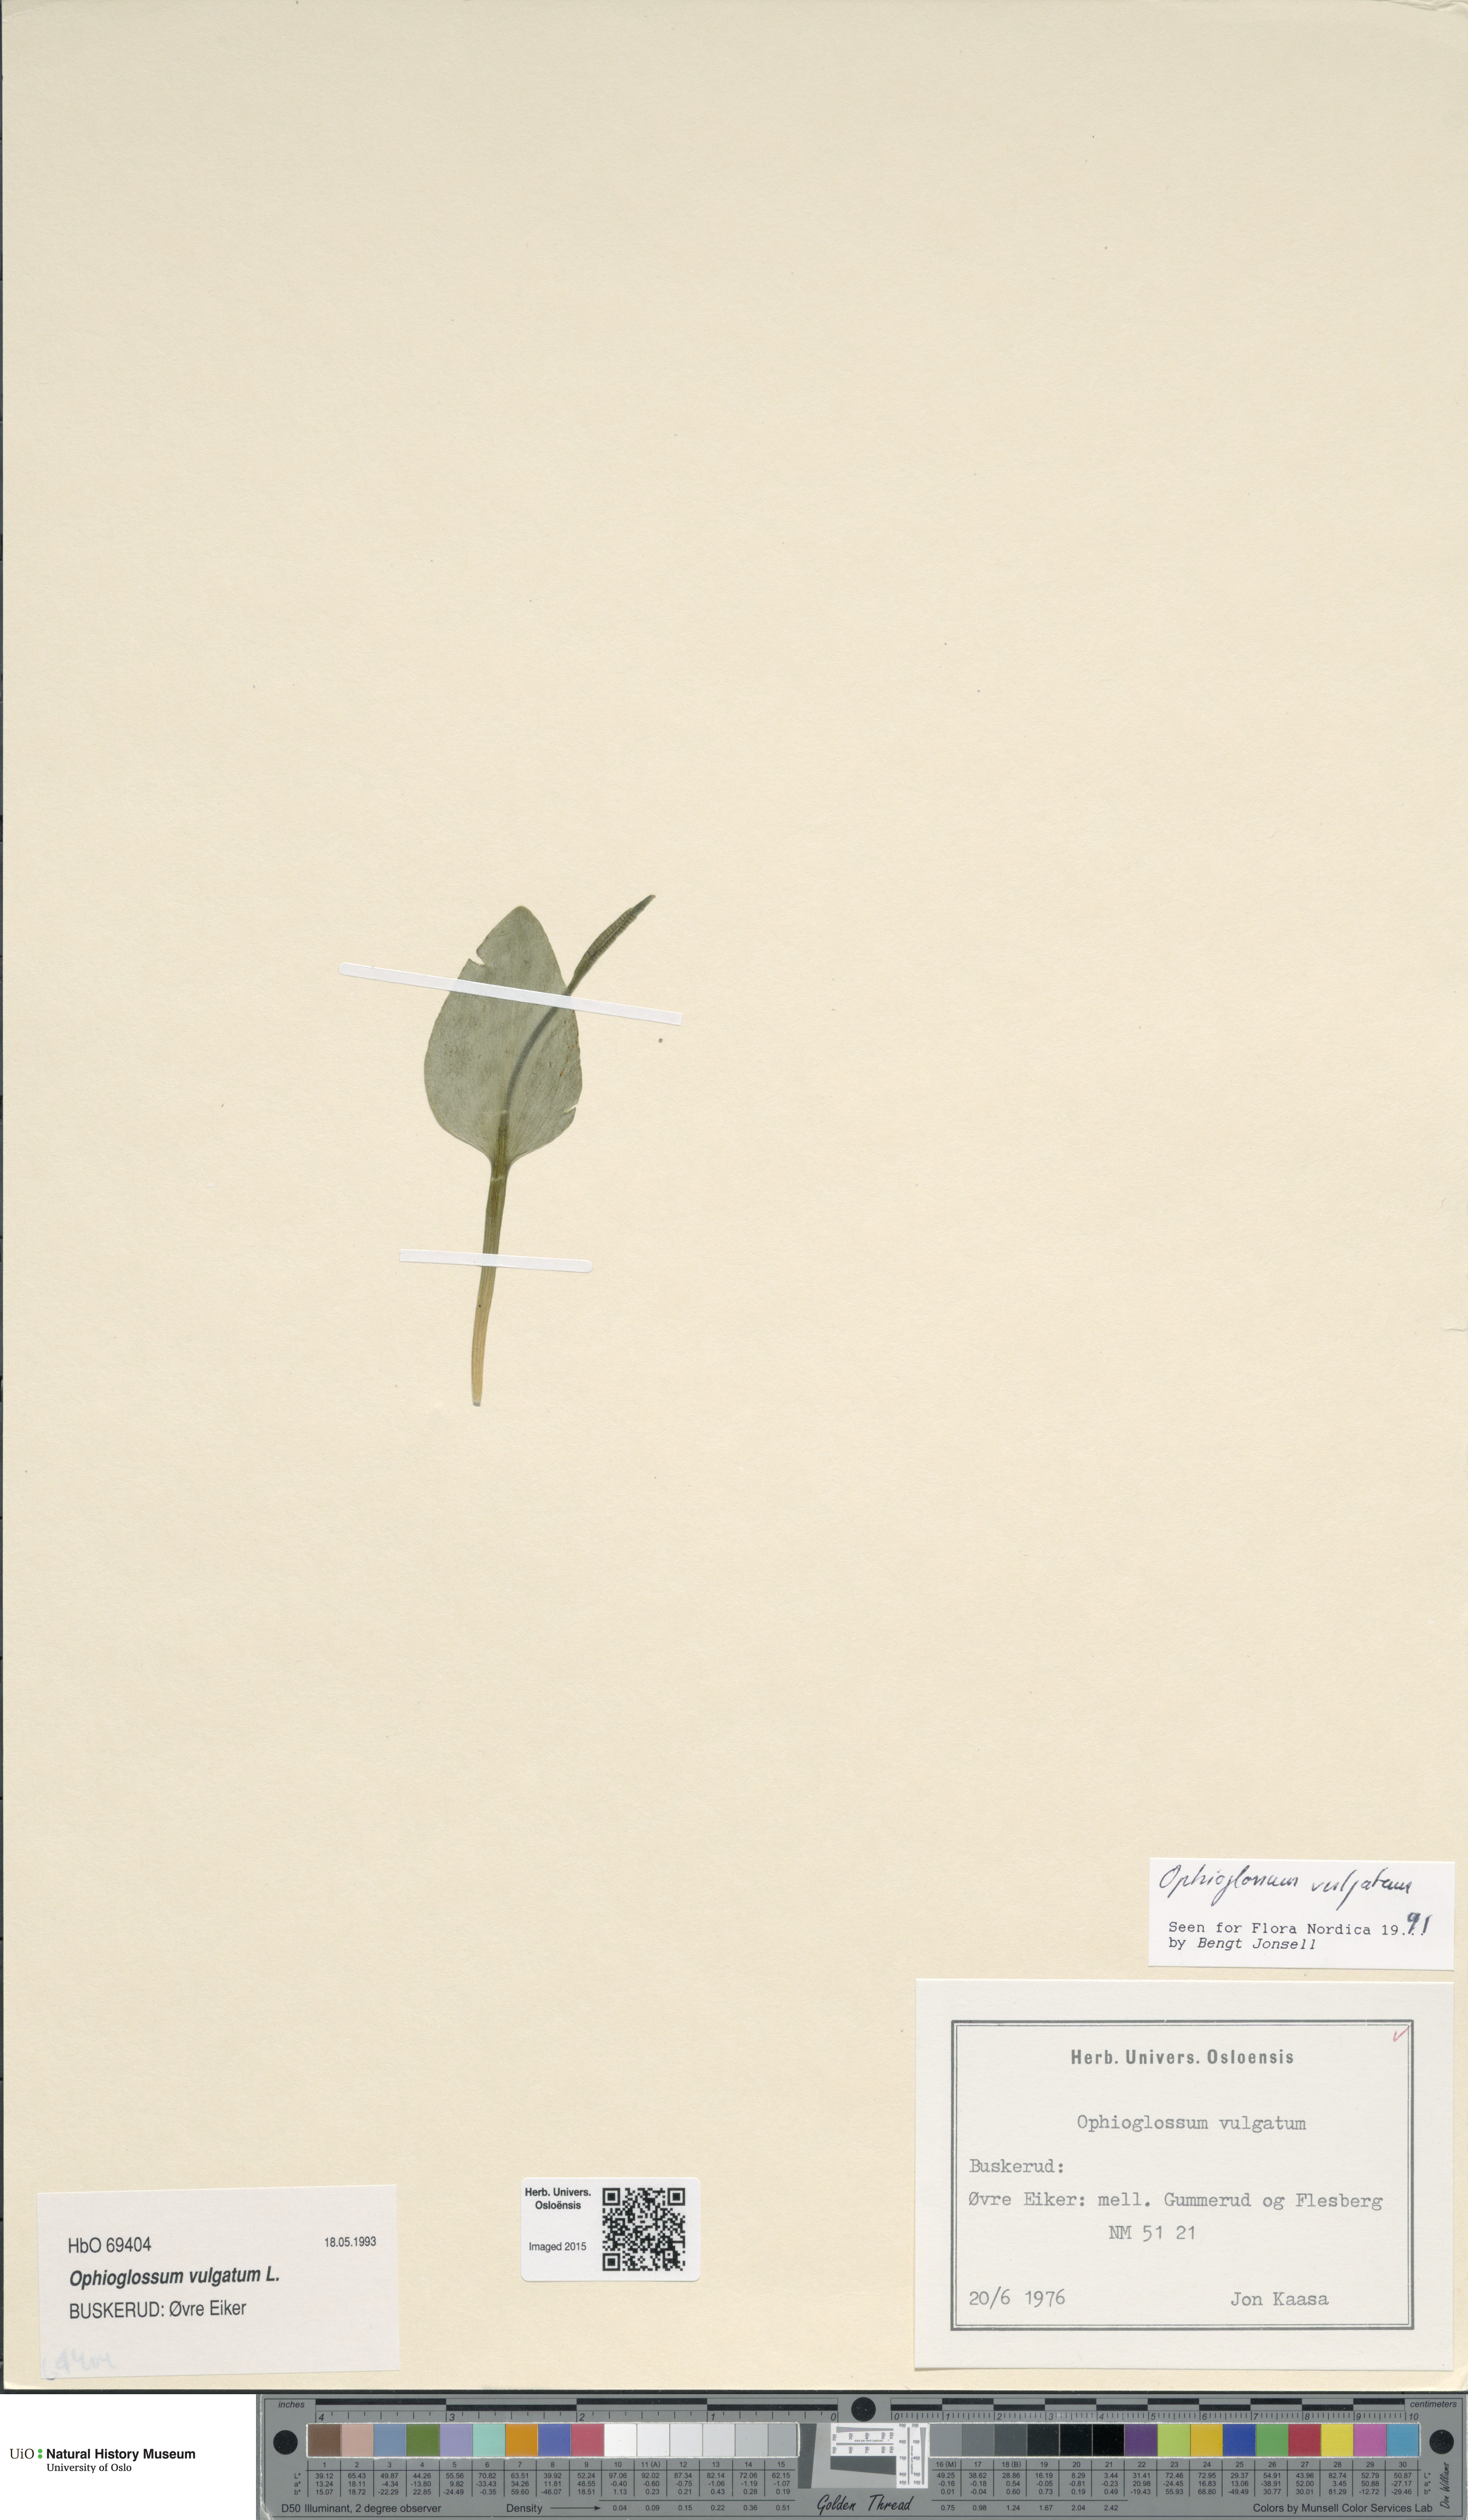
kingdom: Plantae
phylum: Tracheophyta
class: Polypodiopsida
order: Ophioglossales
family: Ophioglossaceae
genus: Ophioglossum
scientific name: Ophioglossum vulgatum
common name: Adder's-tongue
